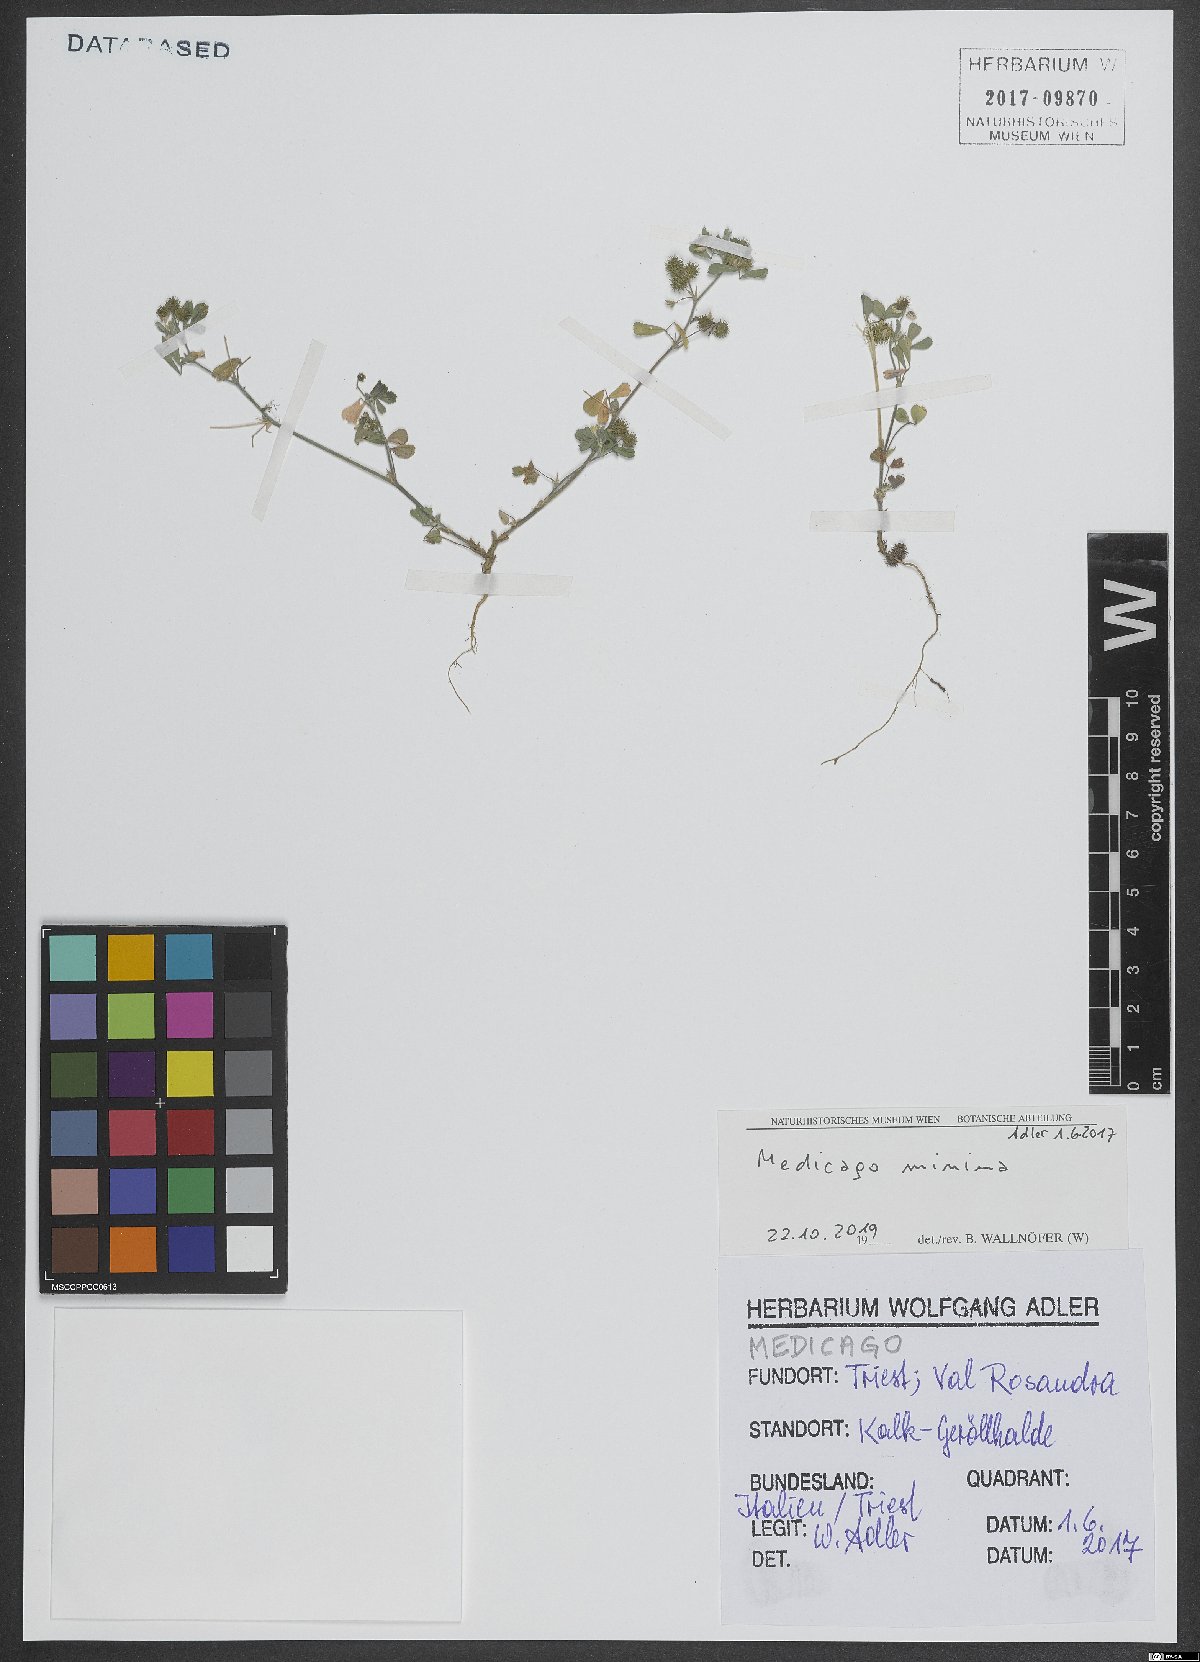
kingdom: Plantae
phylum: Tracheophyta
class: Magnoliopsida
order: Fabales
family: Fabaceae
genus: Medicago
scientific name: Medicago minima
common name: Little bur-clover
